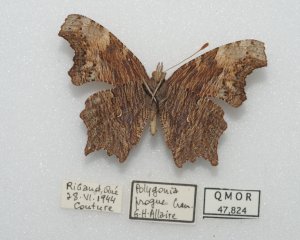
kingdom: Animalia
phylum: Arthropoda
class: Insecta
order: Lepidoptera
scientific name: Lepidoptera
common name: Butterflies
